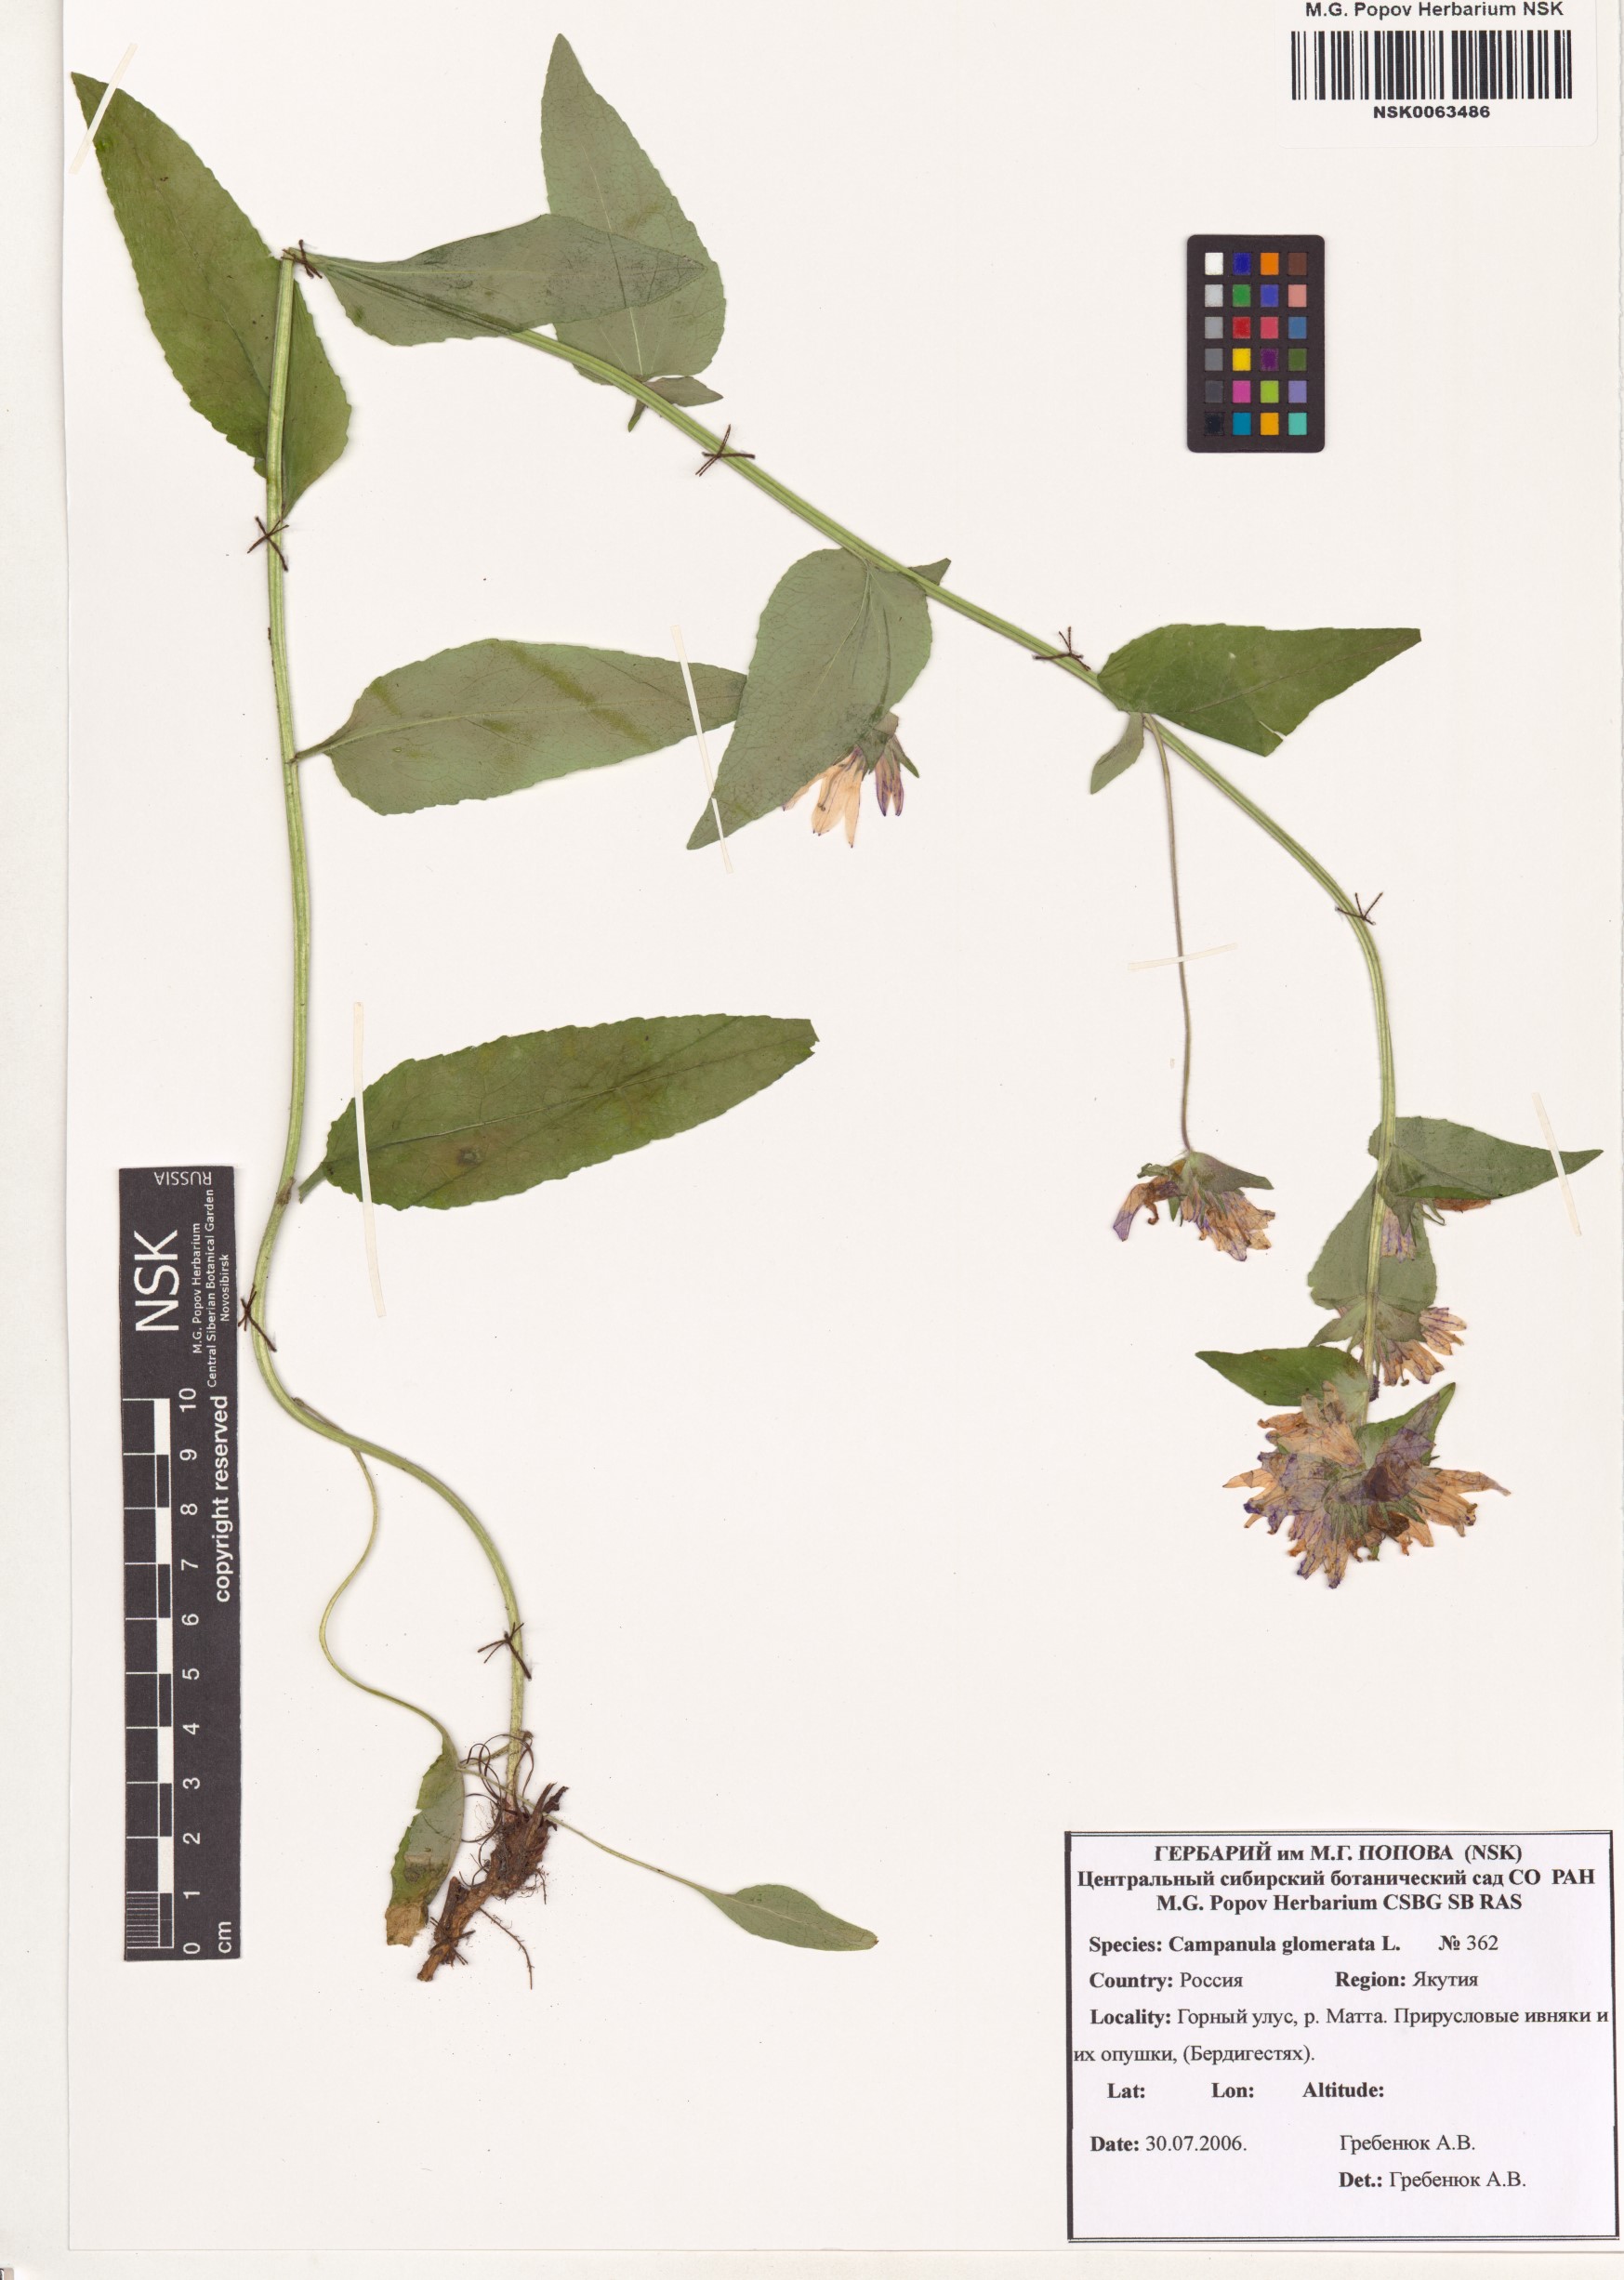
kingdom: Plantae
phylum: Tracheophyta
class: Magnoliopsida
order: Asterales
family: Campanulaceae
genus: Campanula
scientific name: Campanula glomerata
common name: Clustered bellflower
